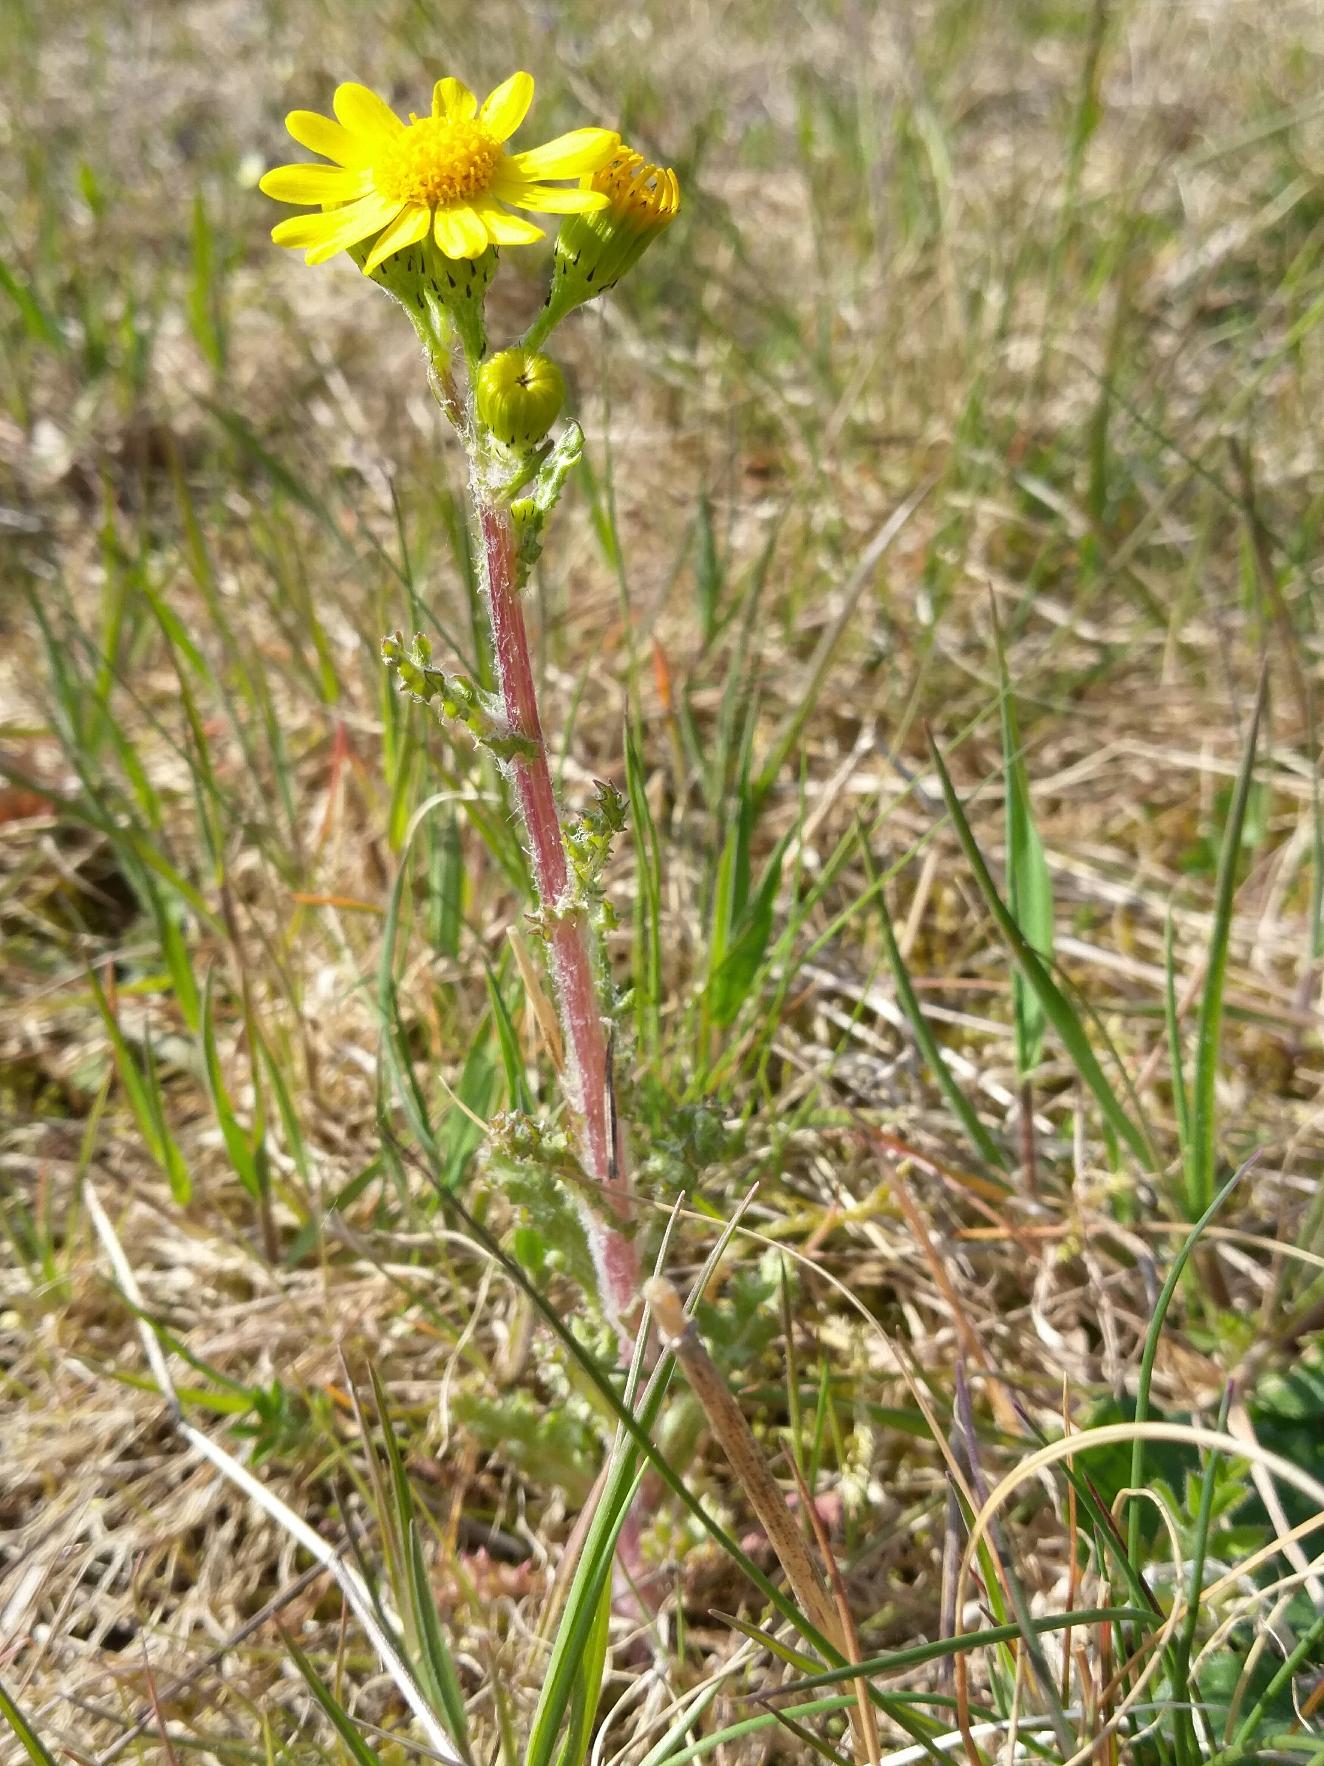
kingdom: Plantae
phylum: Tracheophyta
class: Magnoliopsida
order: Asterales
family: Asteraceae
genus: Senecio
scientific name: Senecio leucanthemifolius
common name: Vår-brandbæger
